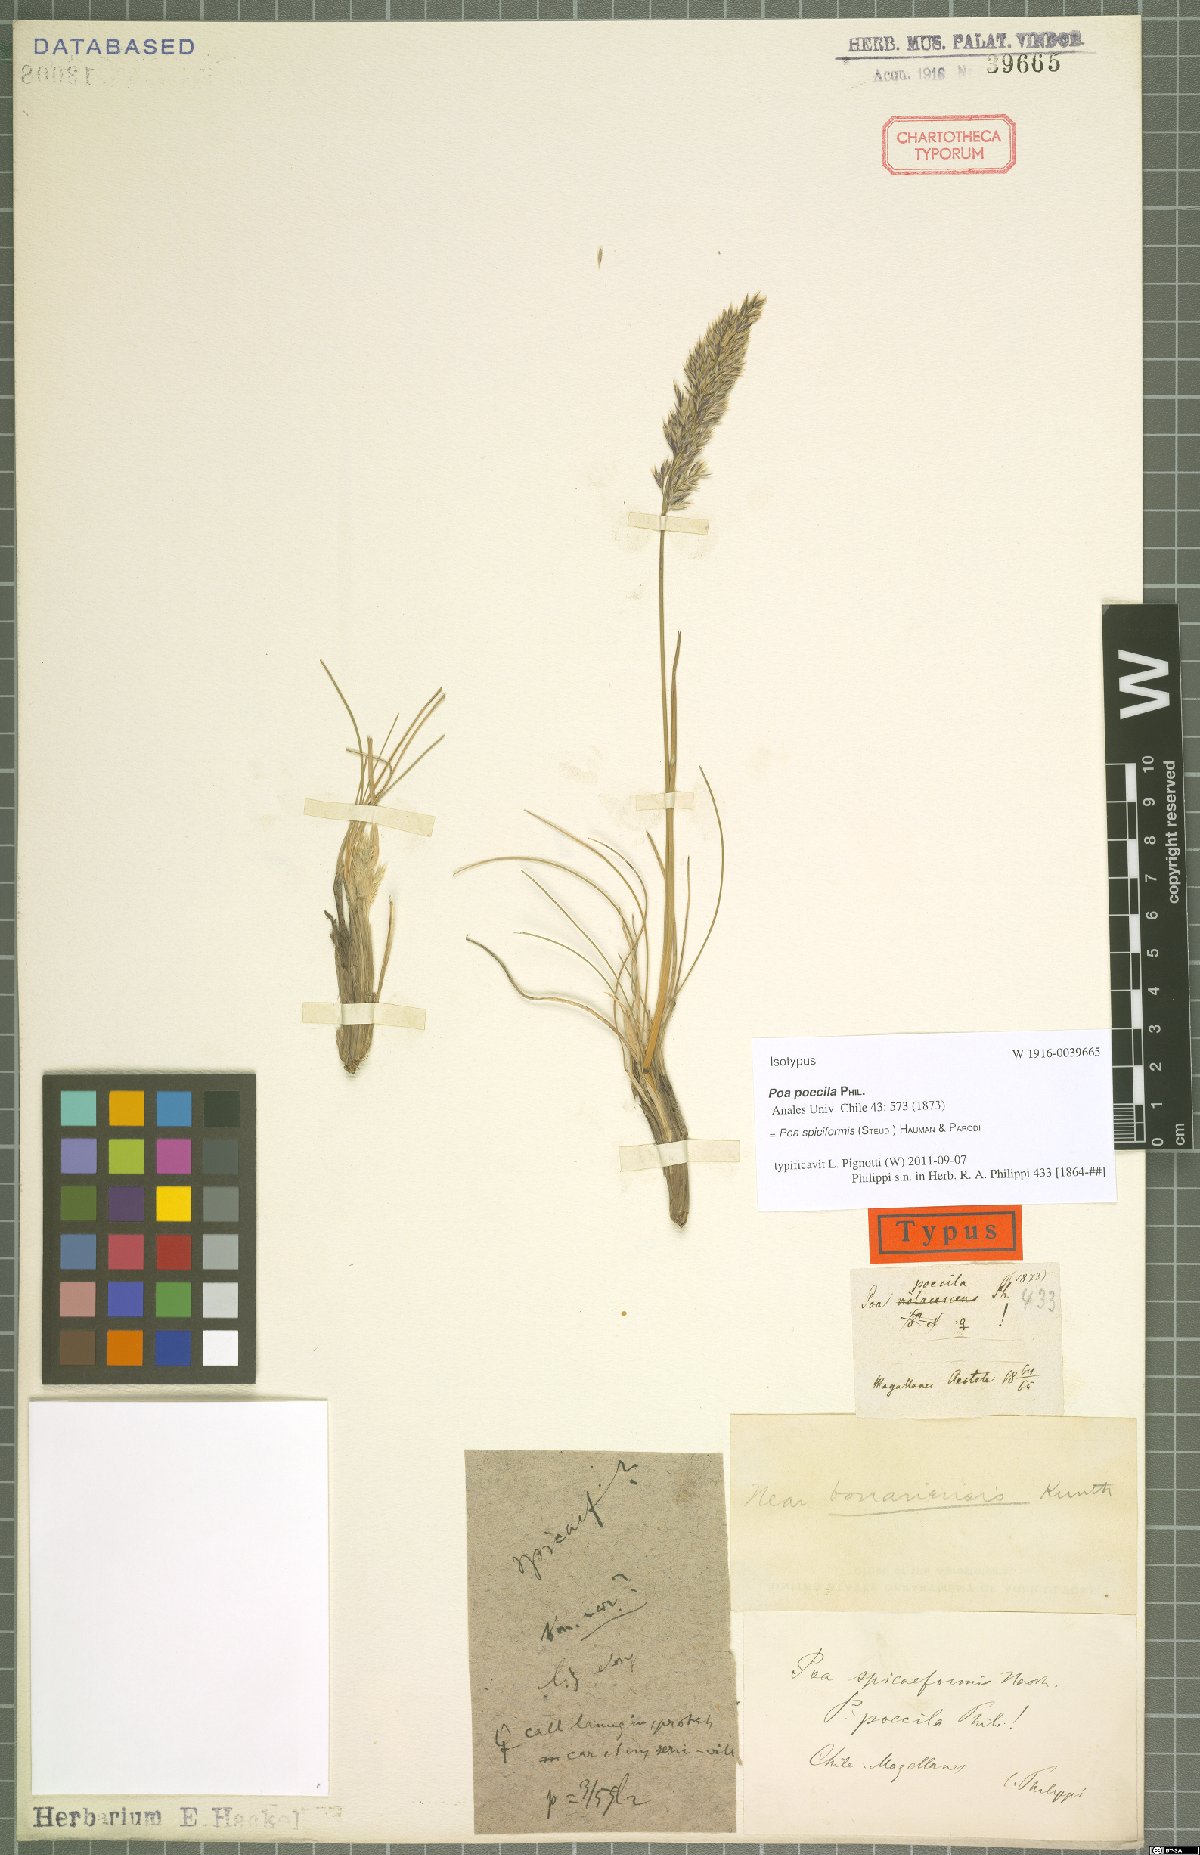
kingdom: Plantae
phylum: Tracheophyta
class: Liliopsida
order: Poales
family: Poaceae
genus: Poa
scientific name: Poa spiciformis
